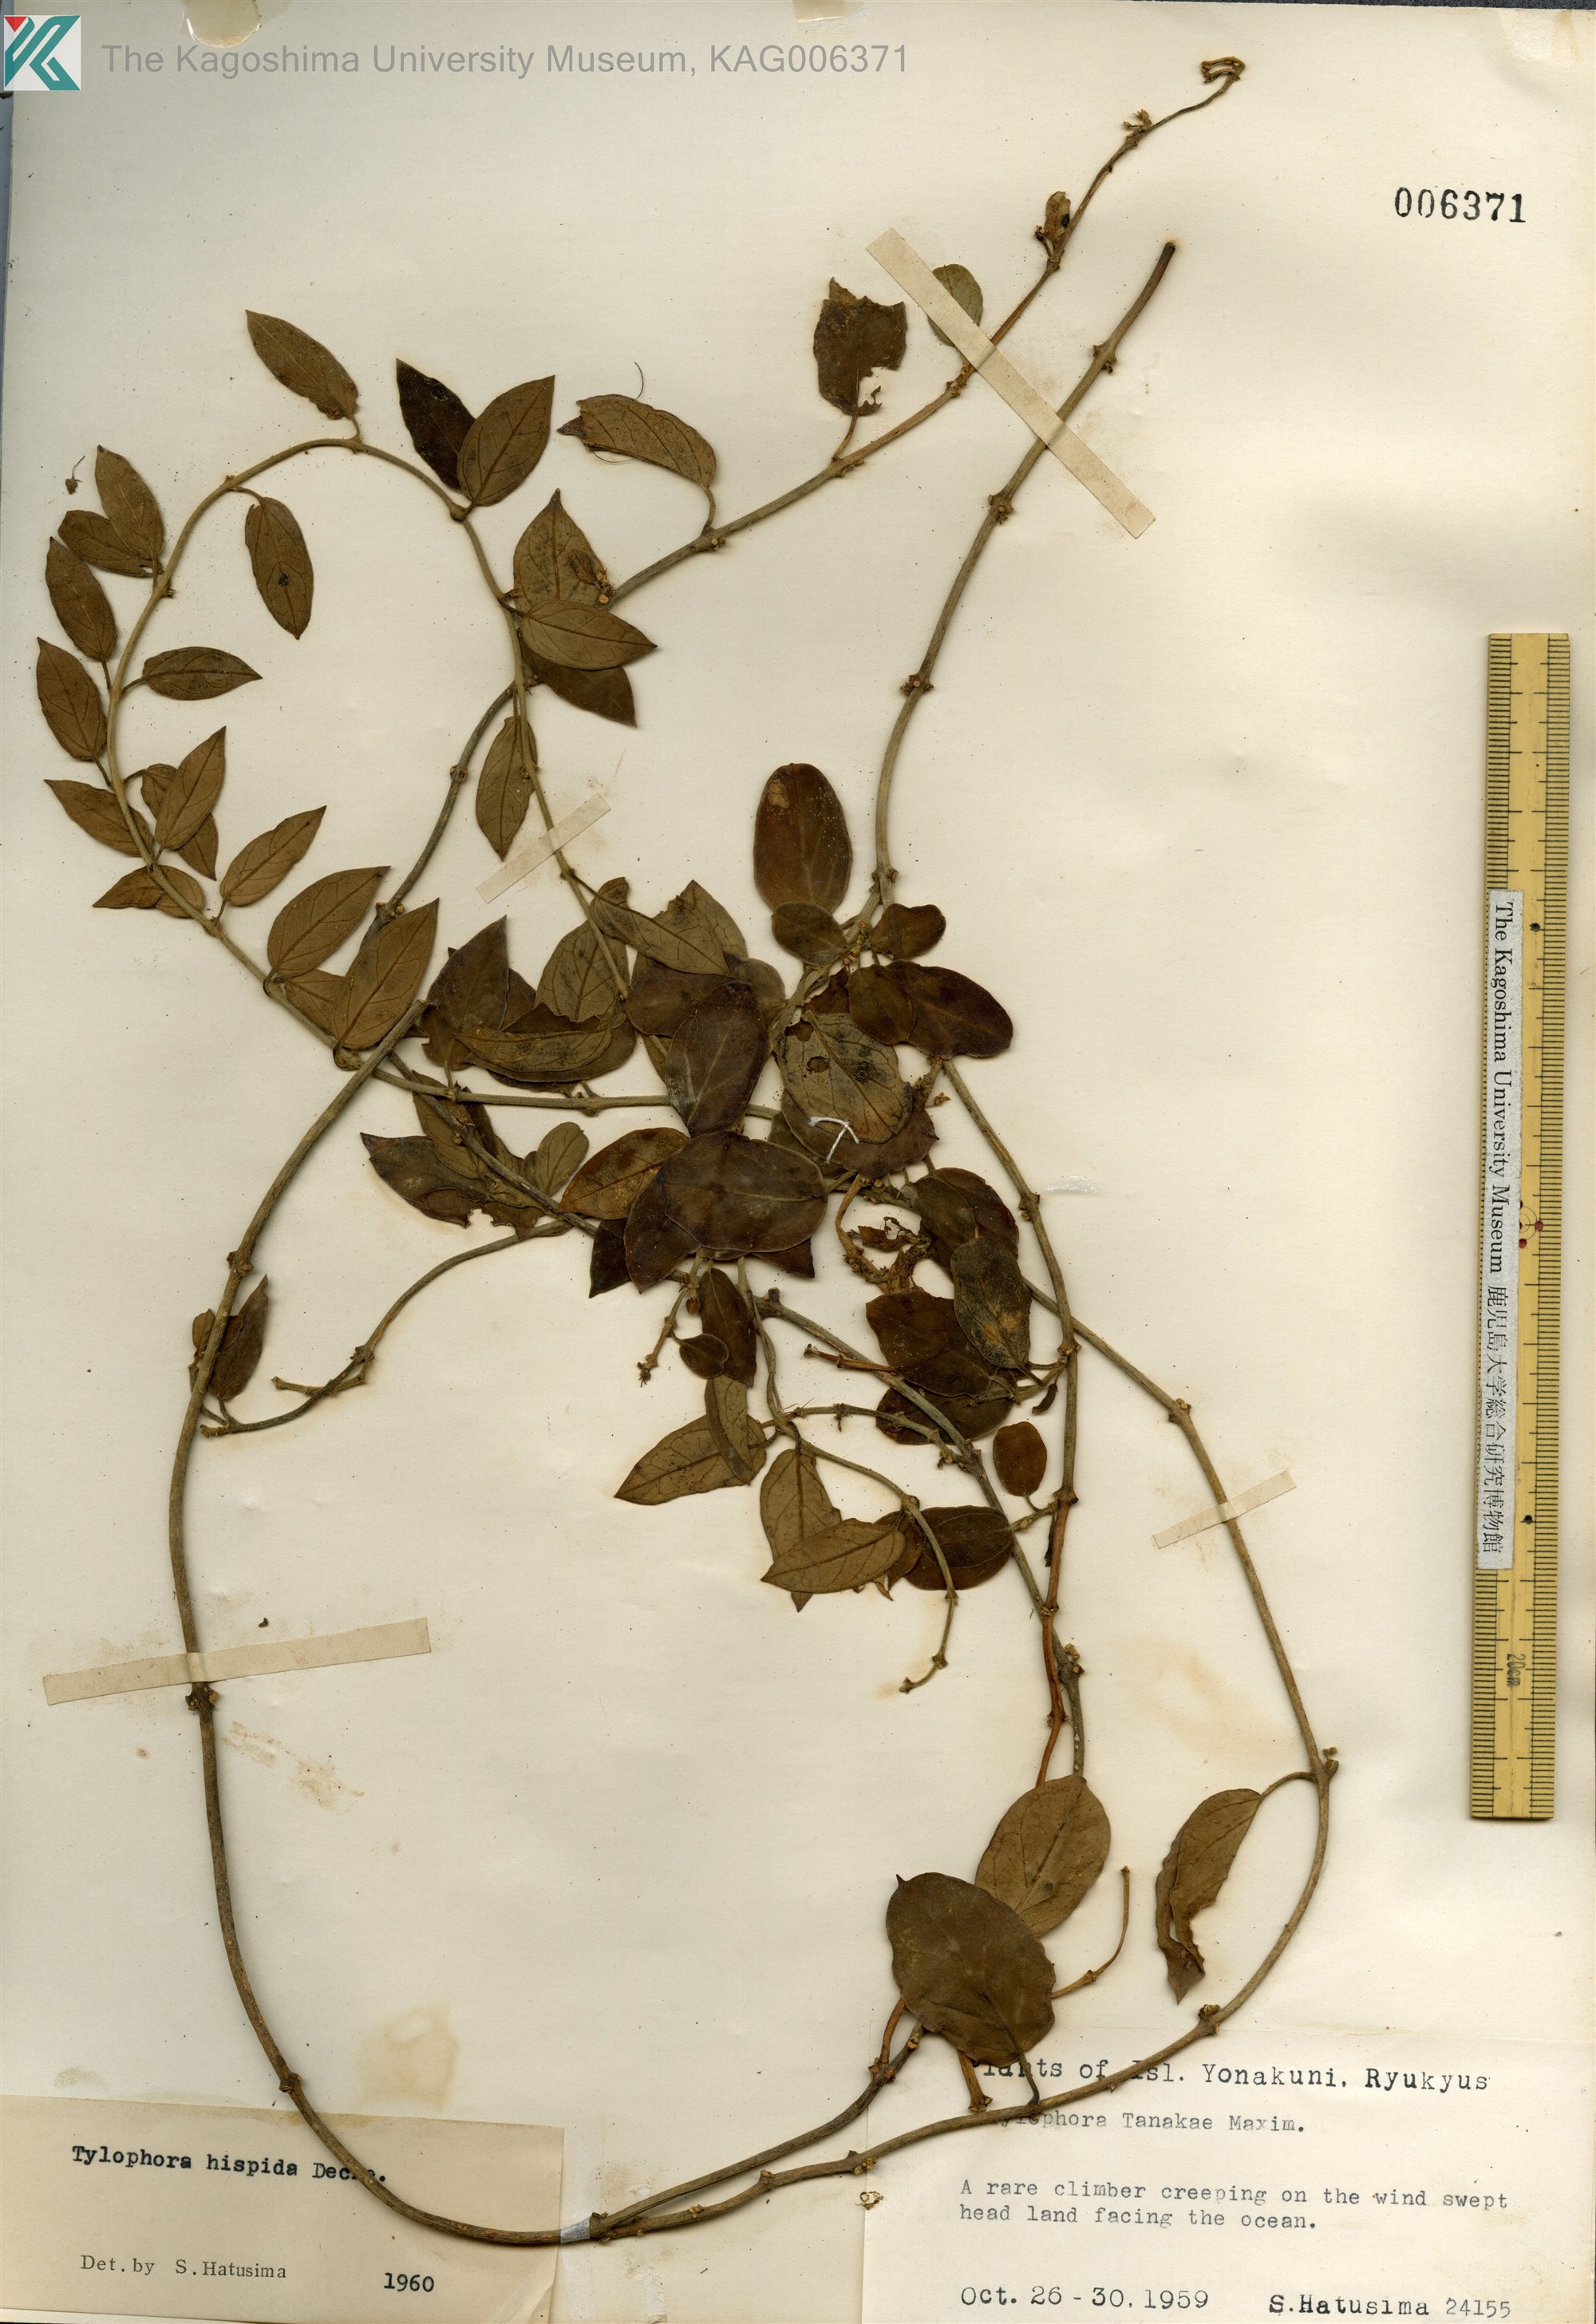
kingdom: Plantae
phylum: Tracheophyta
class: Magnoliopsida
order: Gentianales
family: Apocynaceae
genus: Vincetoxicum
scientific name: Vincetoxicum hirsutum
